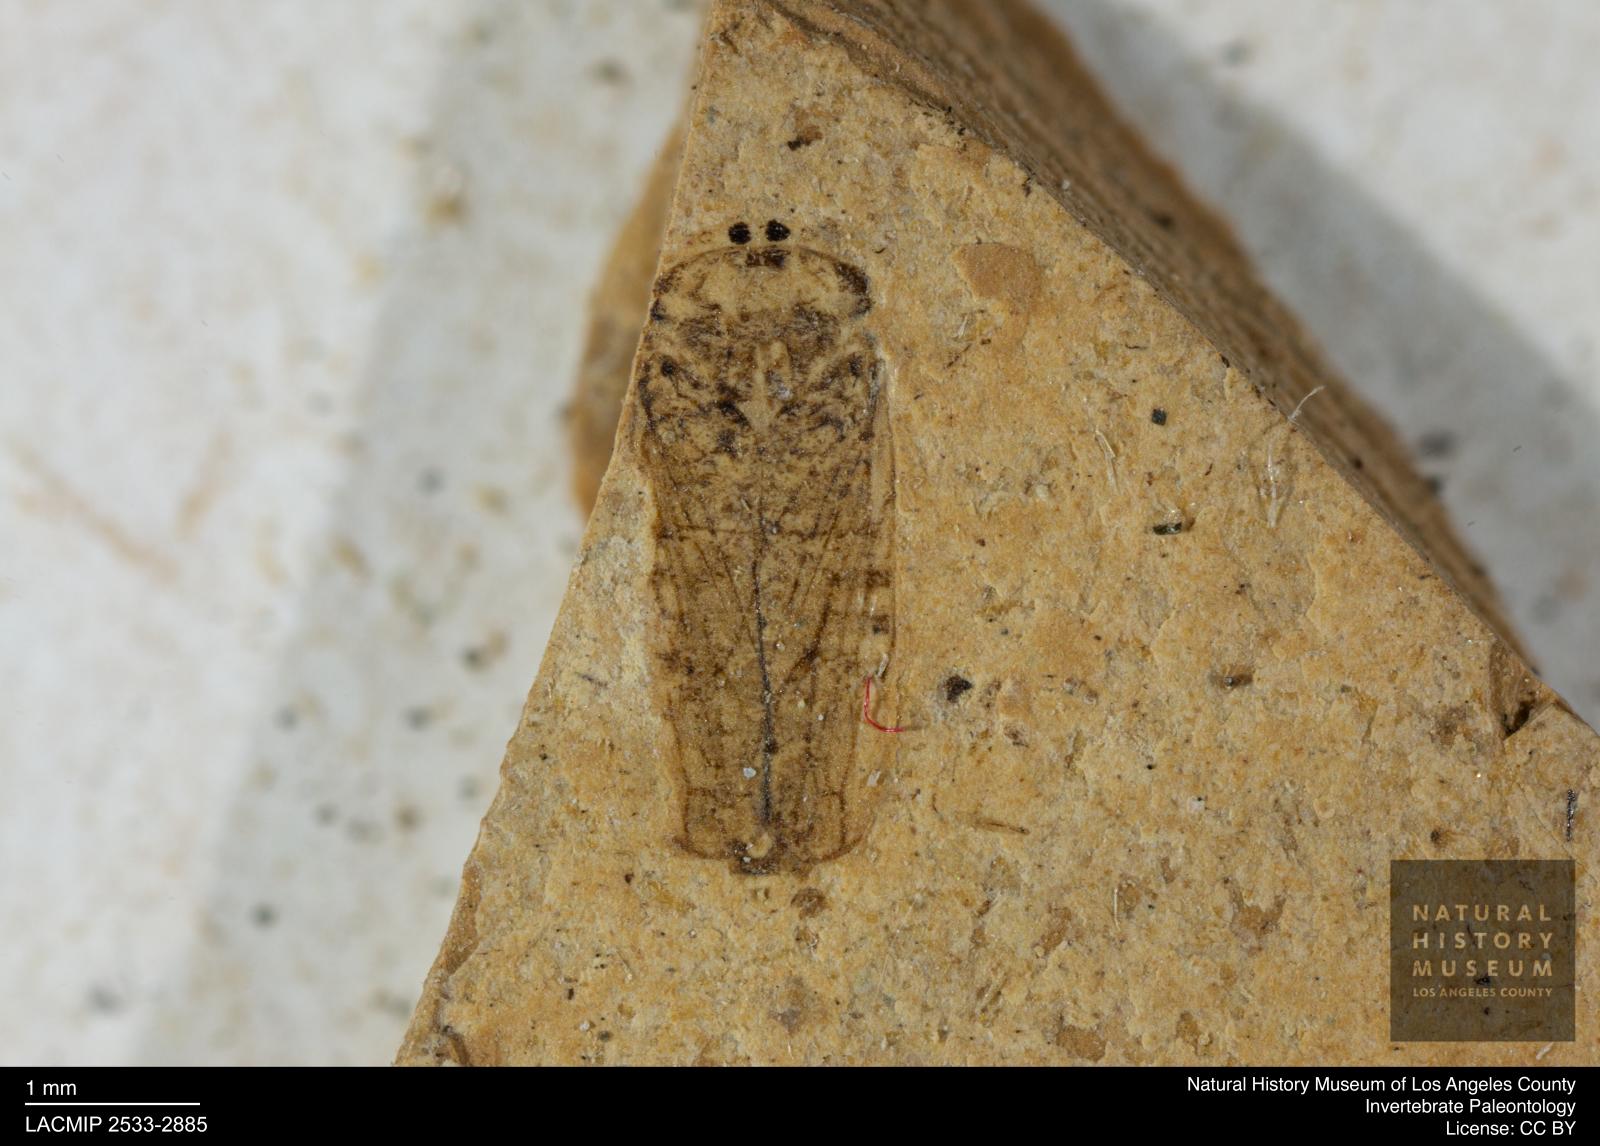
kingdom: Animalia
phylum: Arthropoda
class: Insecta
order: Hemiptera
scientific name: Hemiptera
